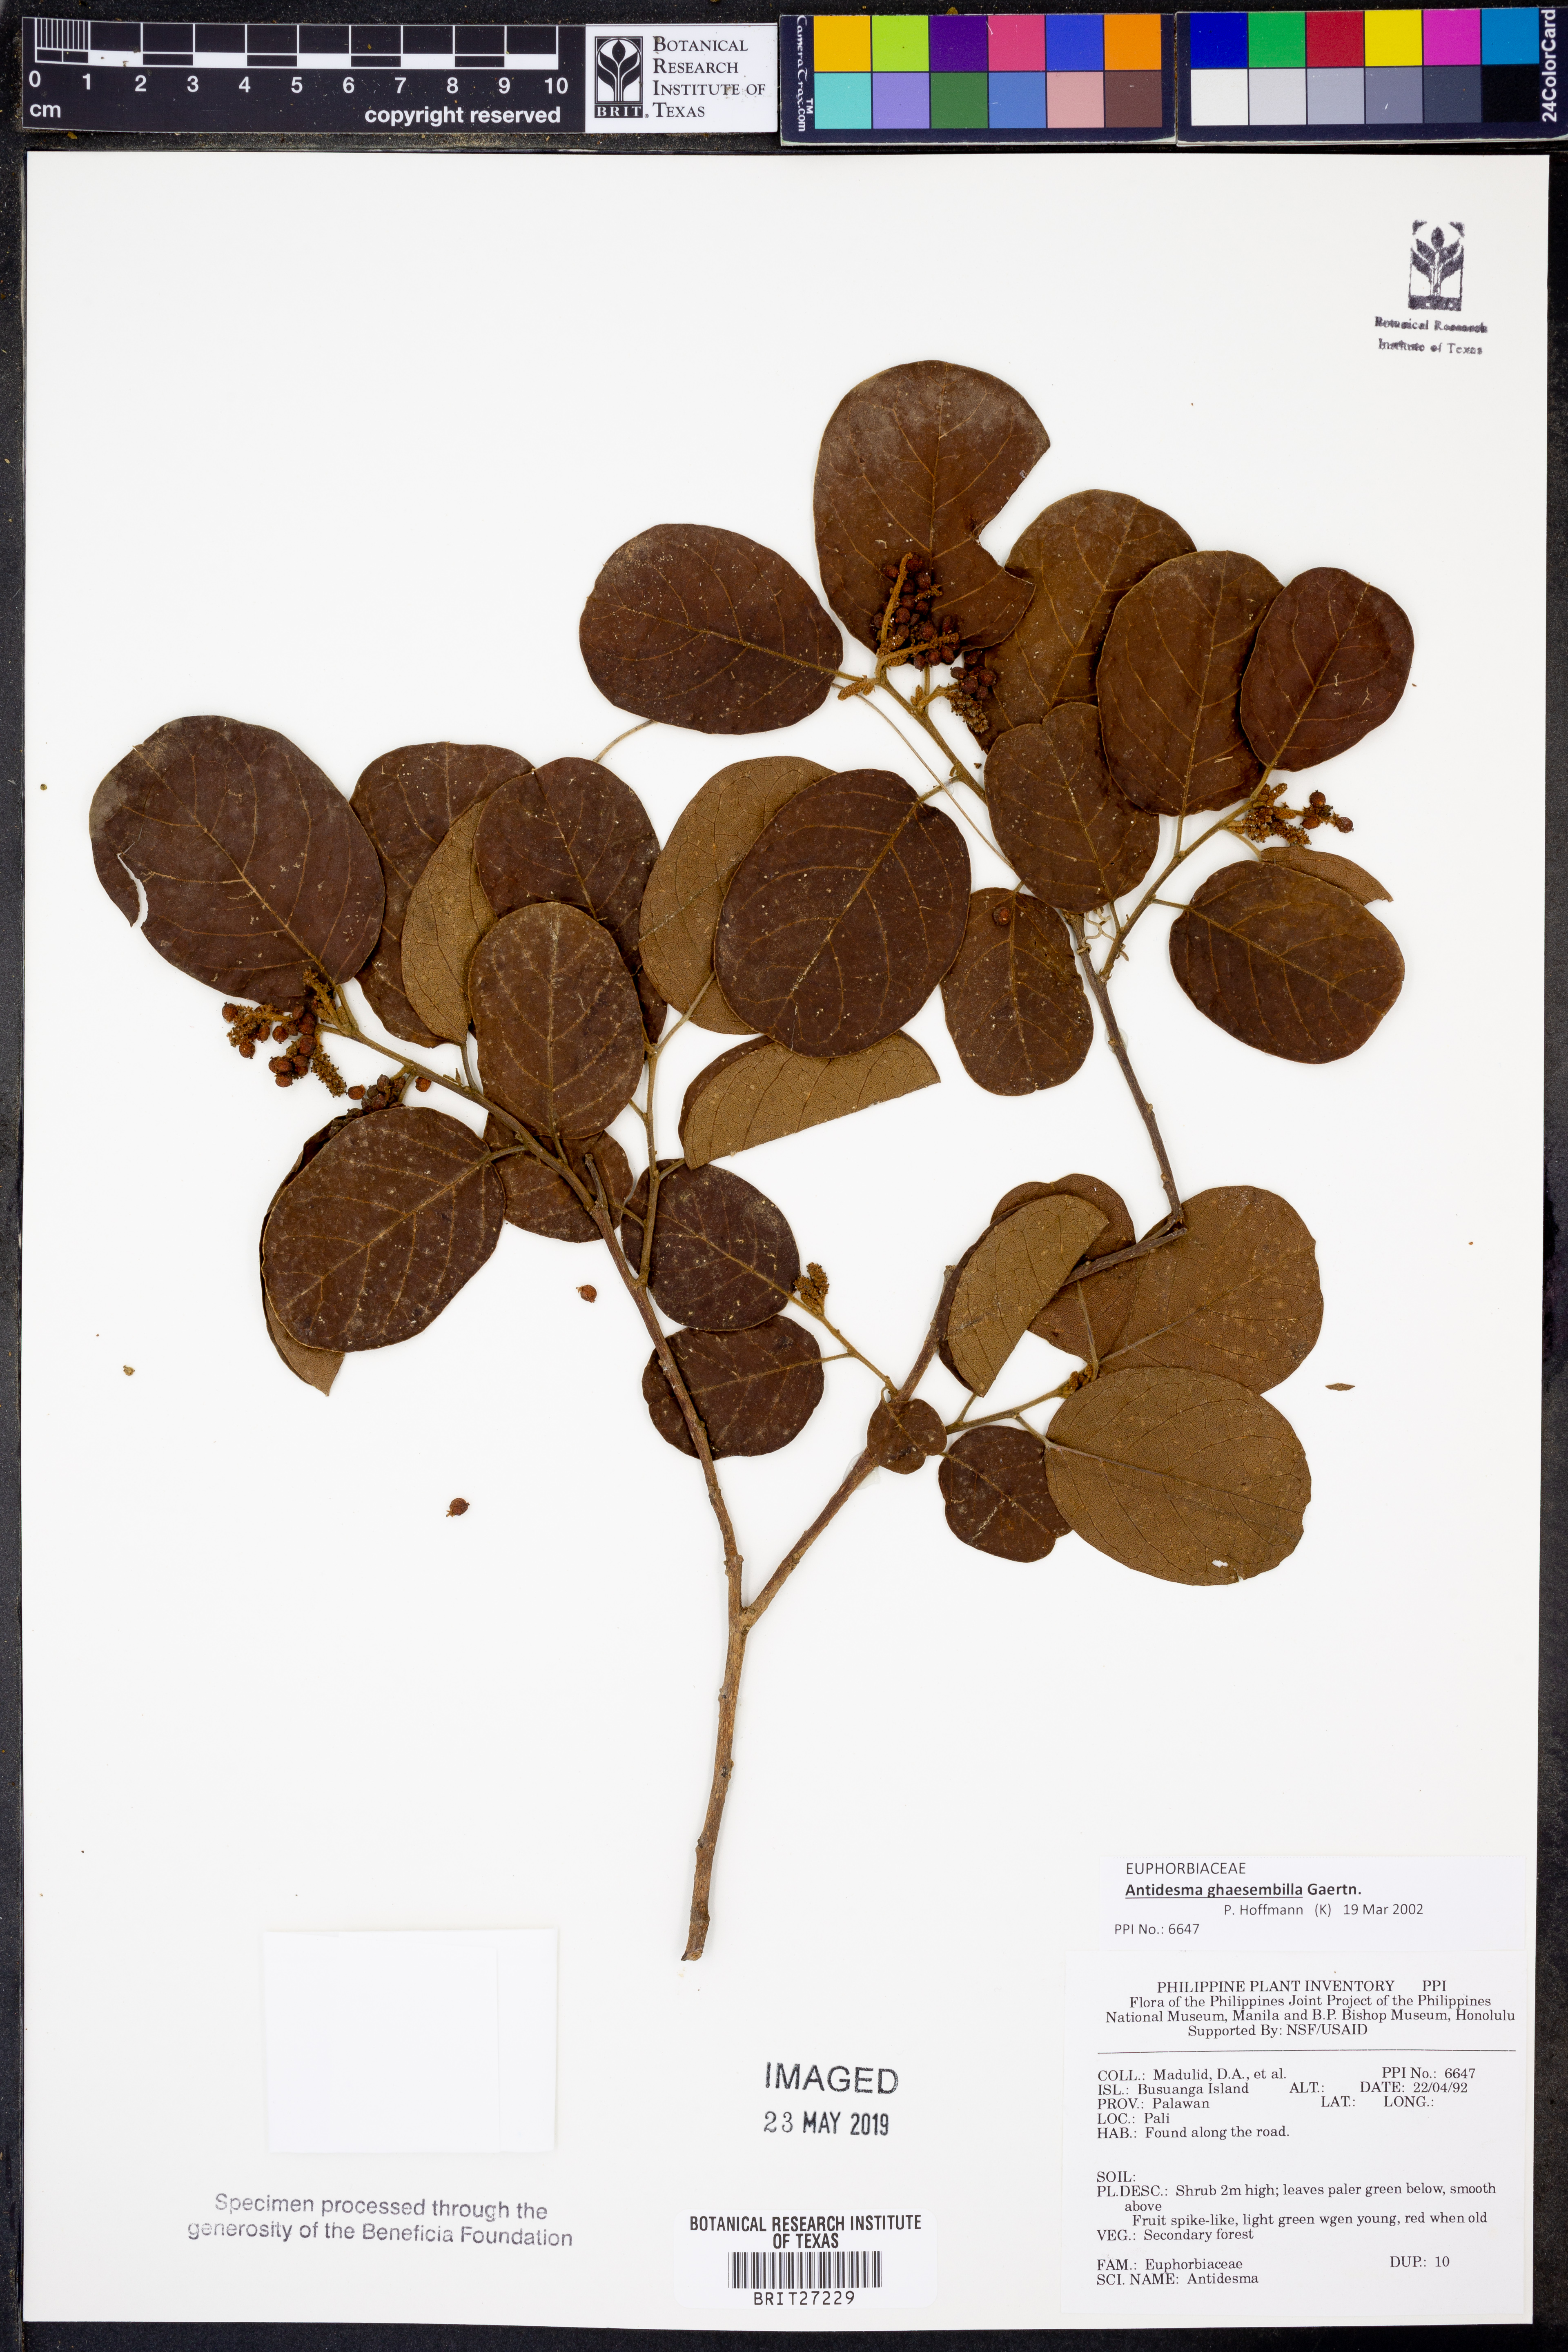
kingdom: Plantae
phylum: Tracheophyta
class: Magnoliopsida
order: Malpighiales
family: Phyllanthaceae
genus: Antidesma
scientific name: Antidesma ghaesembilla
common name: Black currant-tree
